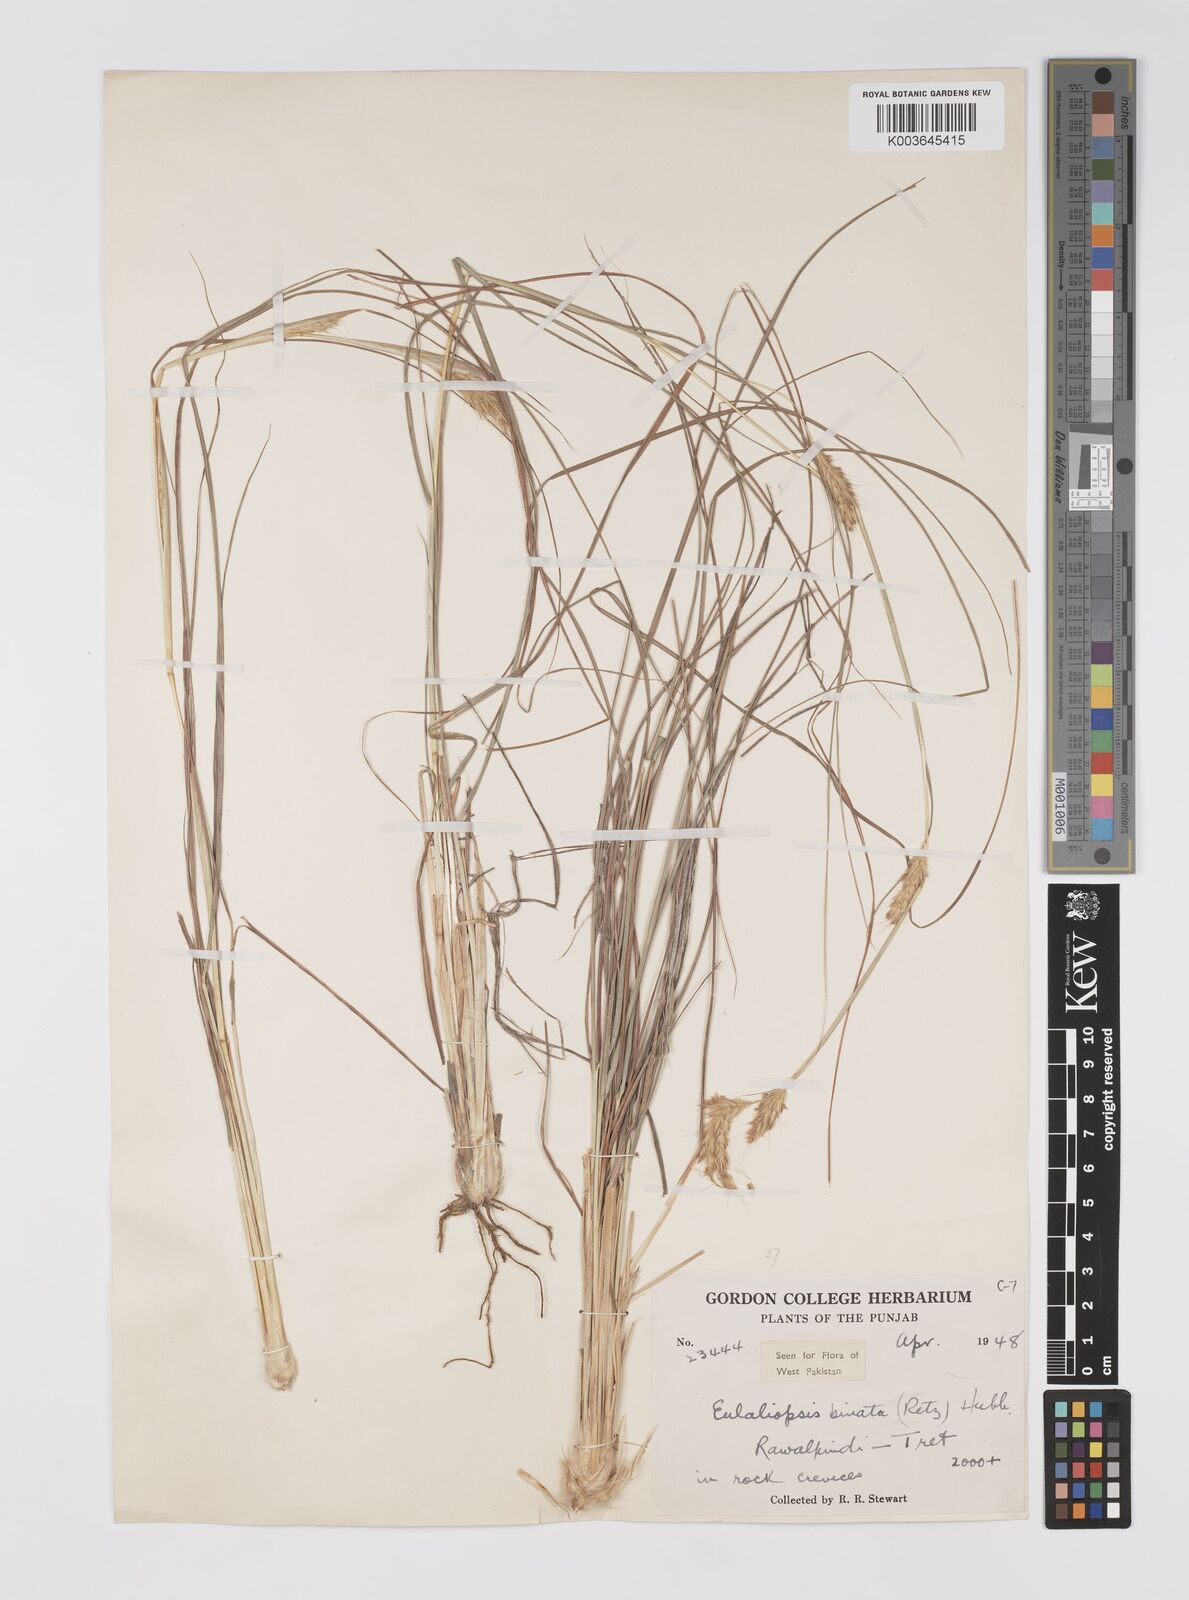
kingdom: Plantae
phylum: Tracheophyta
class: Liliopsida
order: Poales
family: Poaceae
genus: Eulaliopsis
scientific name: Eulaliopsis binata
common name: Baib grass
